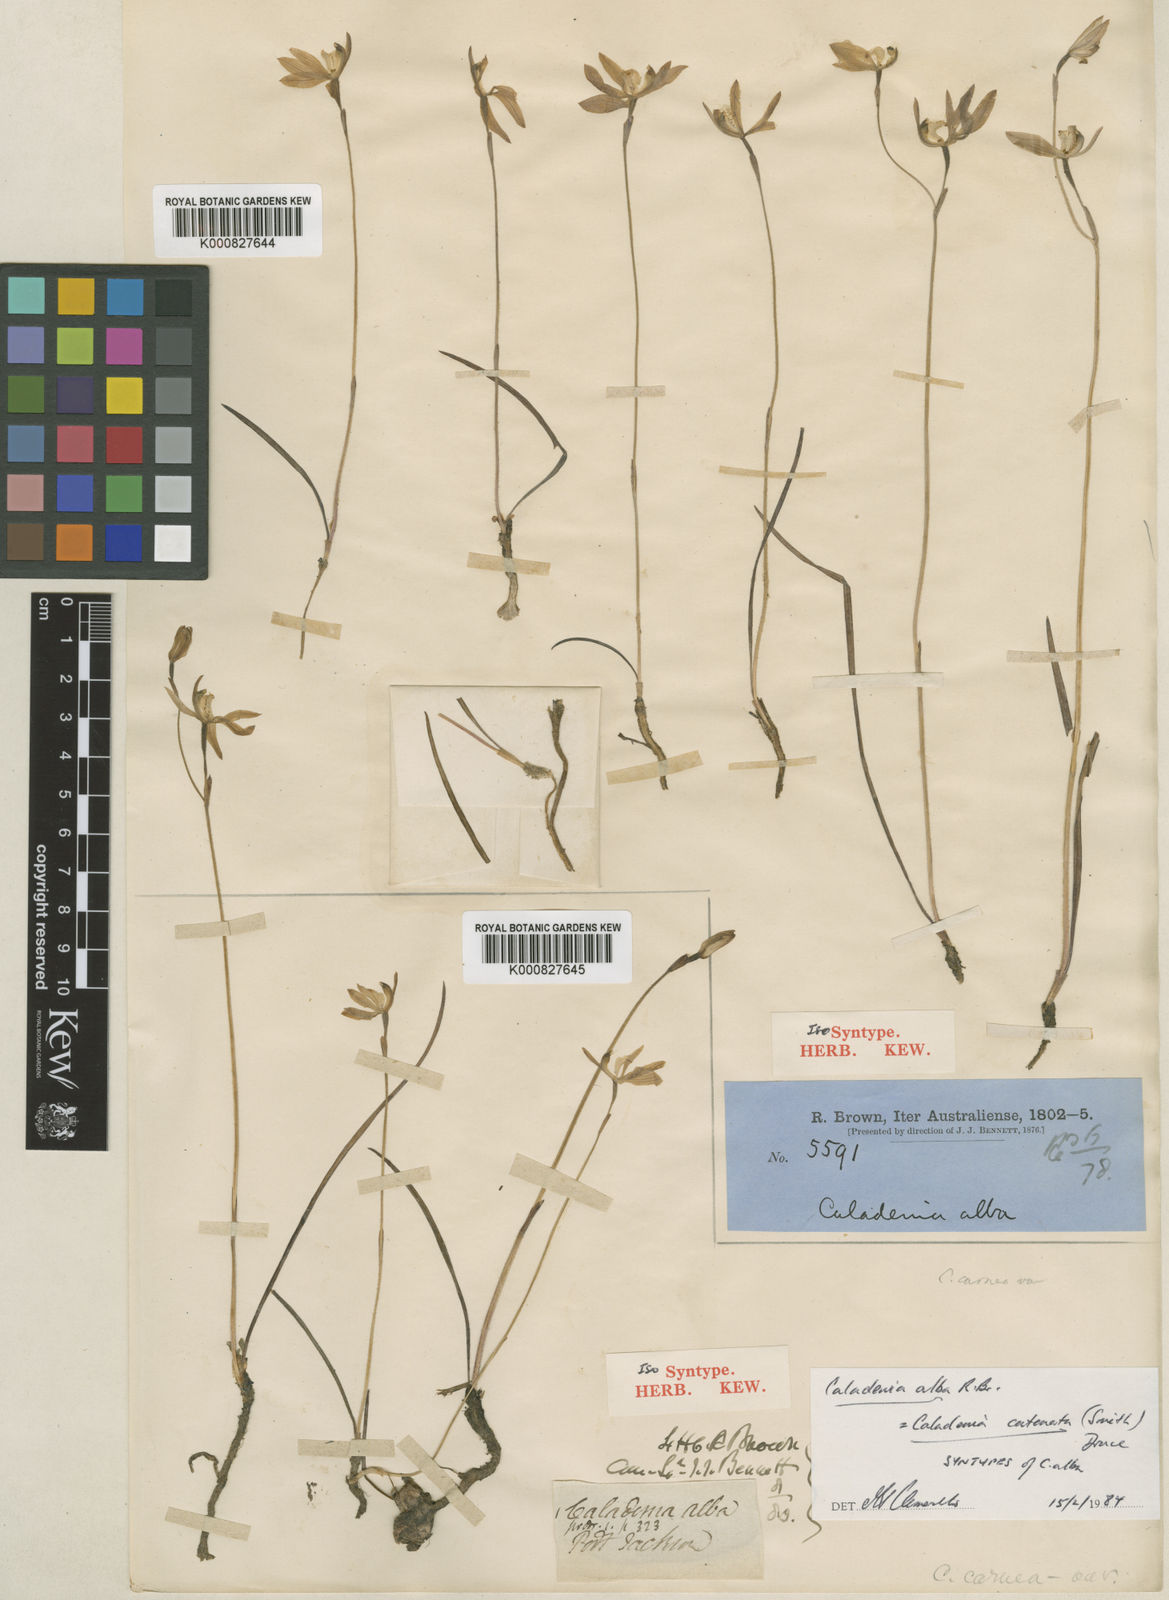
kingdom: Plantae
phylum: Tracheophyta
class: Liliopsida
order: Asparagales
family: Orchidaceae
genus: Caladenia
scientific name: Caladenia catenata
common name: White caladenia
